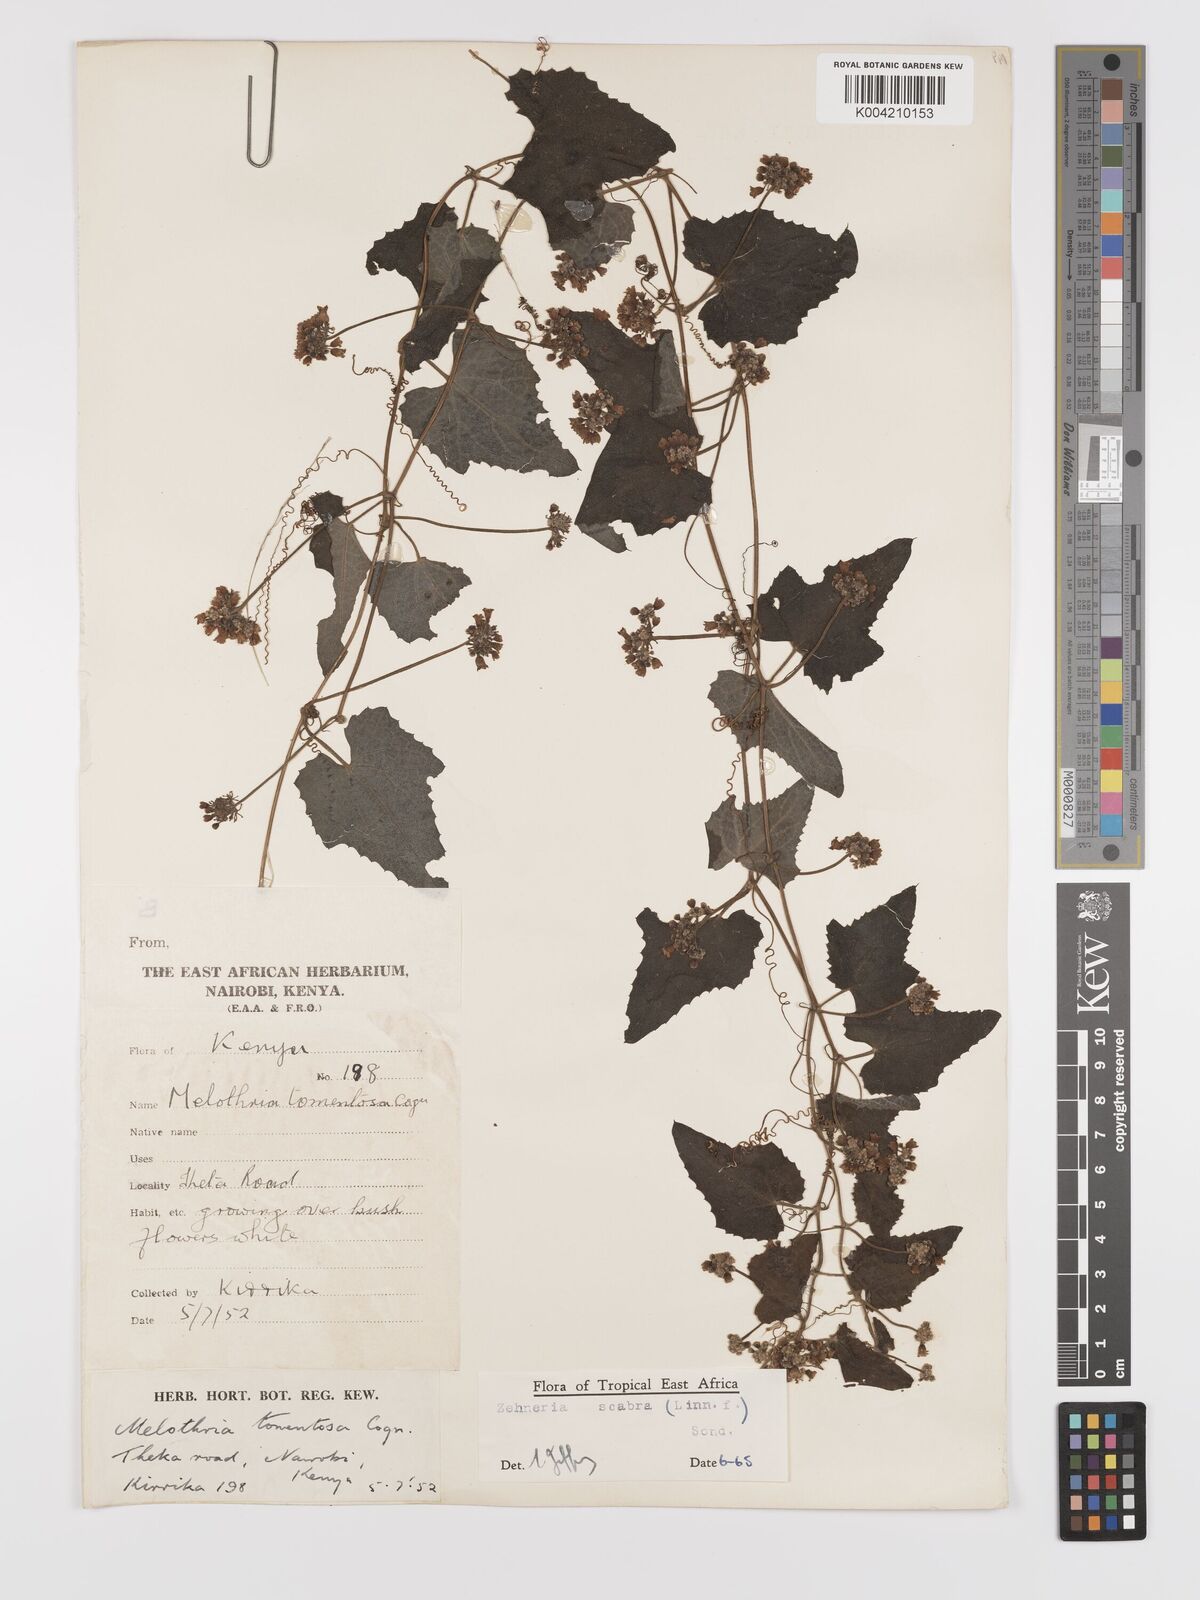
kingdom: Plantae
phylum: Tracheophyta
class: Magnoliopsida
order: Cucurbitales
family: Cucurbitaceae
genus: Zehneria
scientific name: Zehneria scabra
